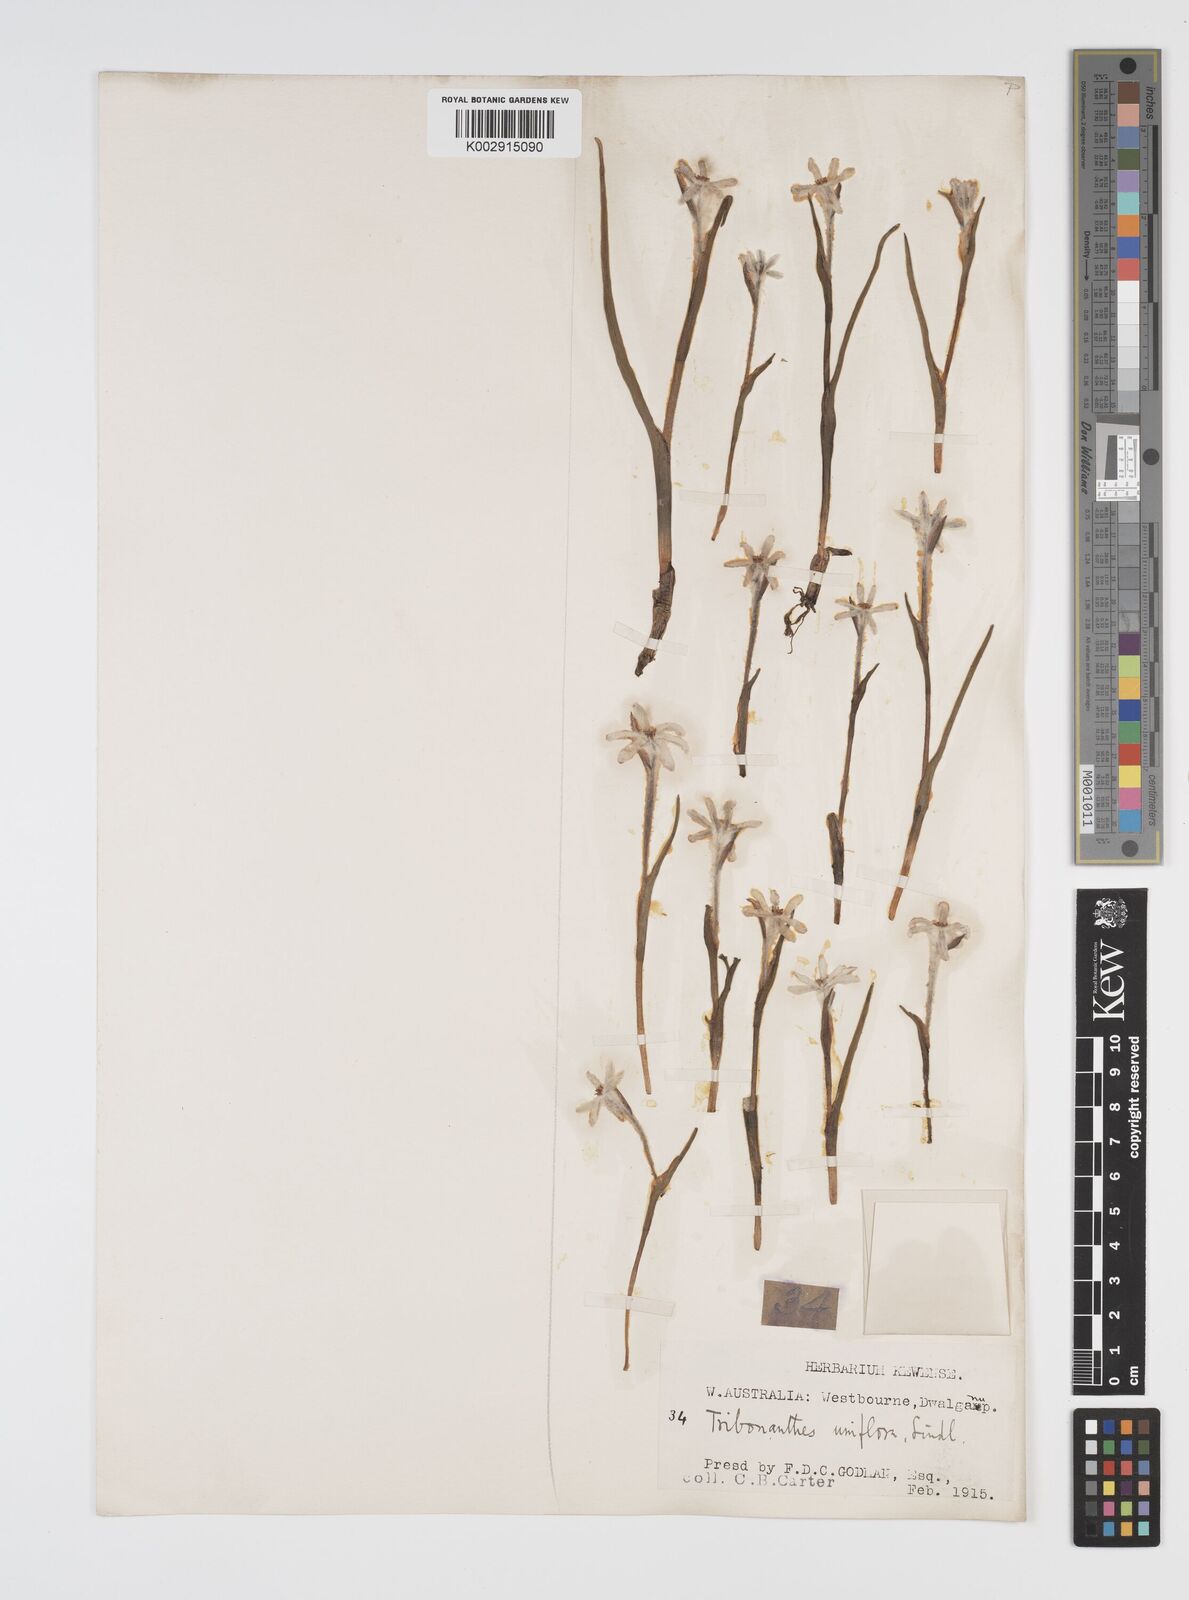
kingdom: Plantae
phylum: Tracheophyta
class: Liliopsida
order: Commelinales
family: Haemodoraceae
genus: Tribonanthes
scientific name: Tribonanthes uniflora
